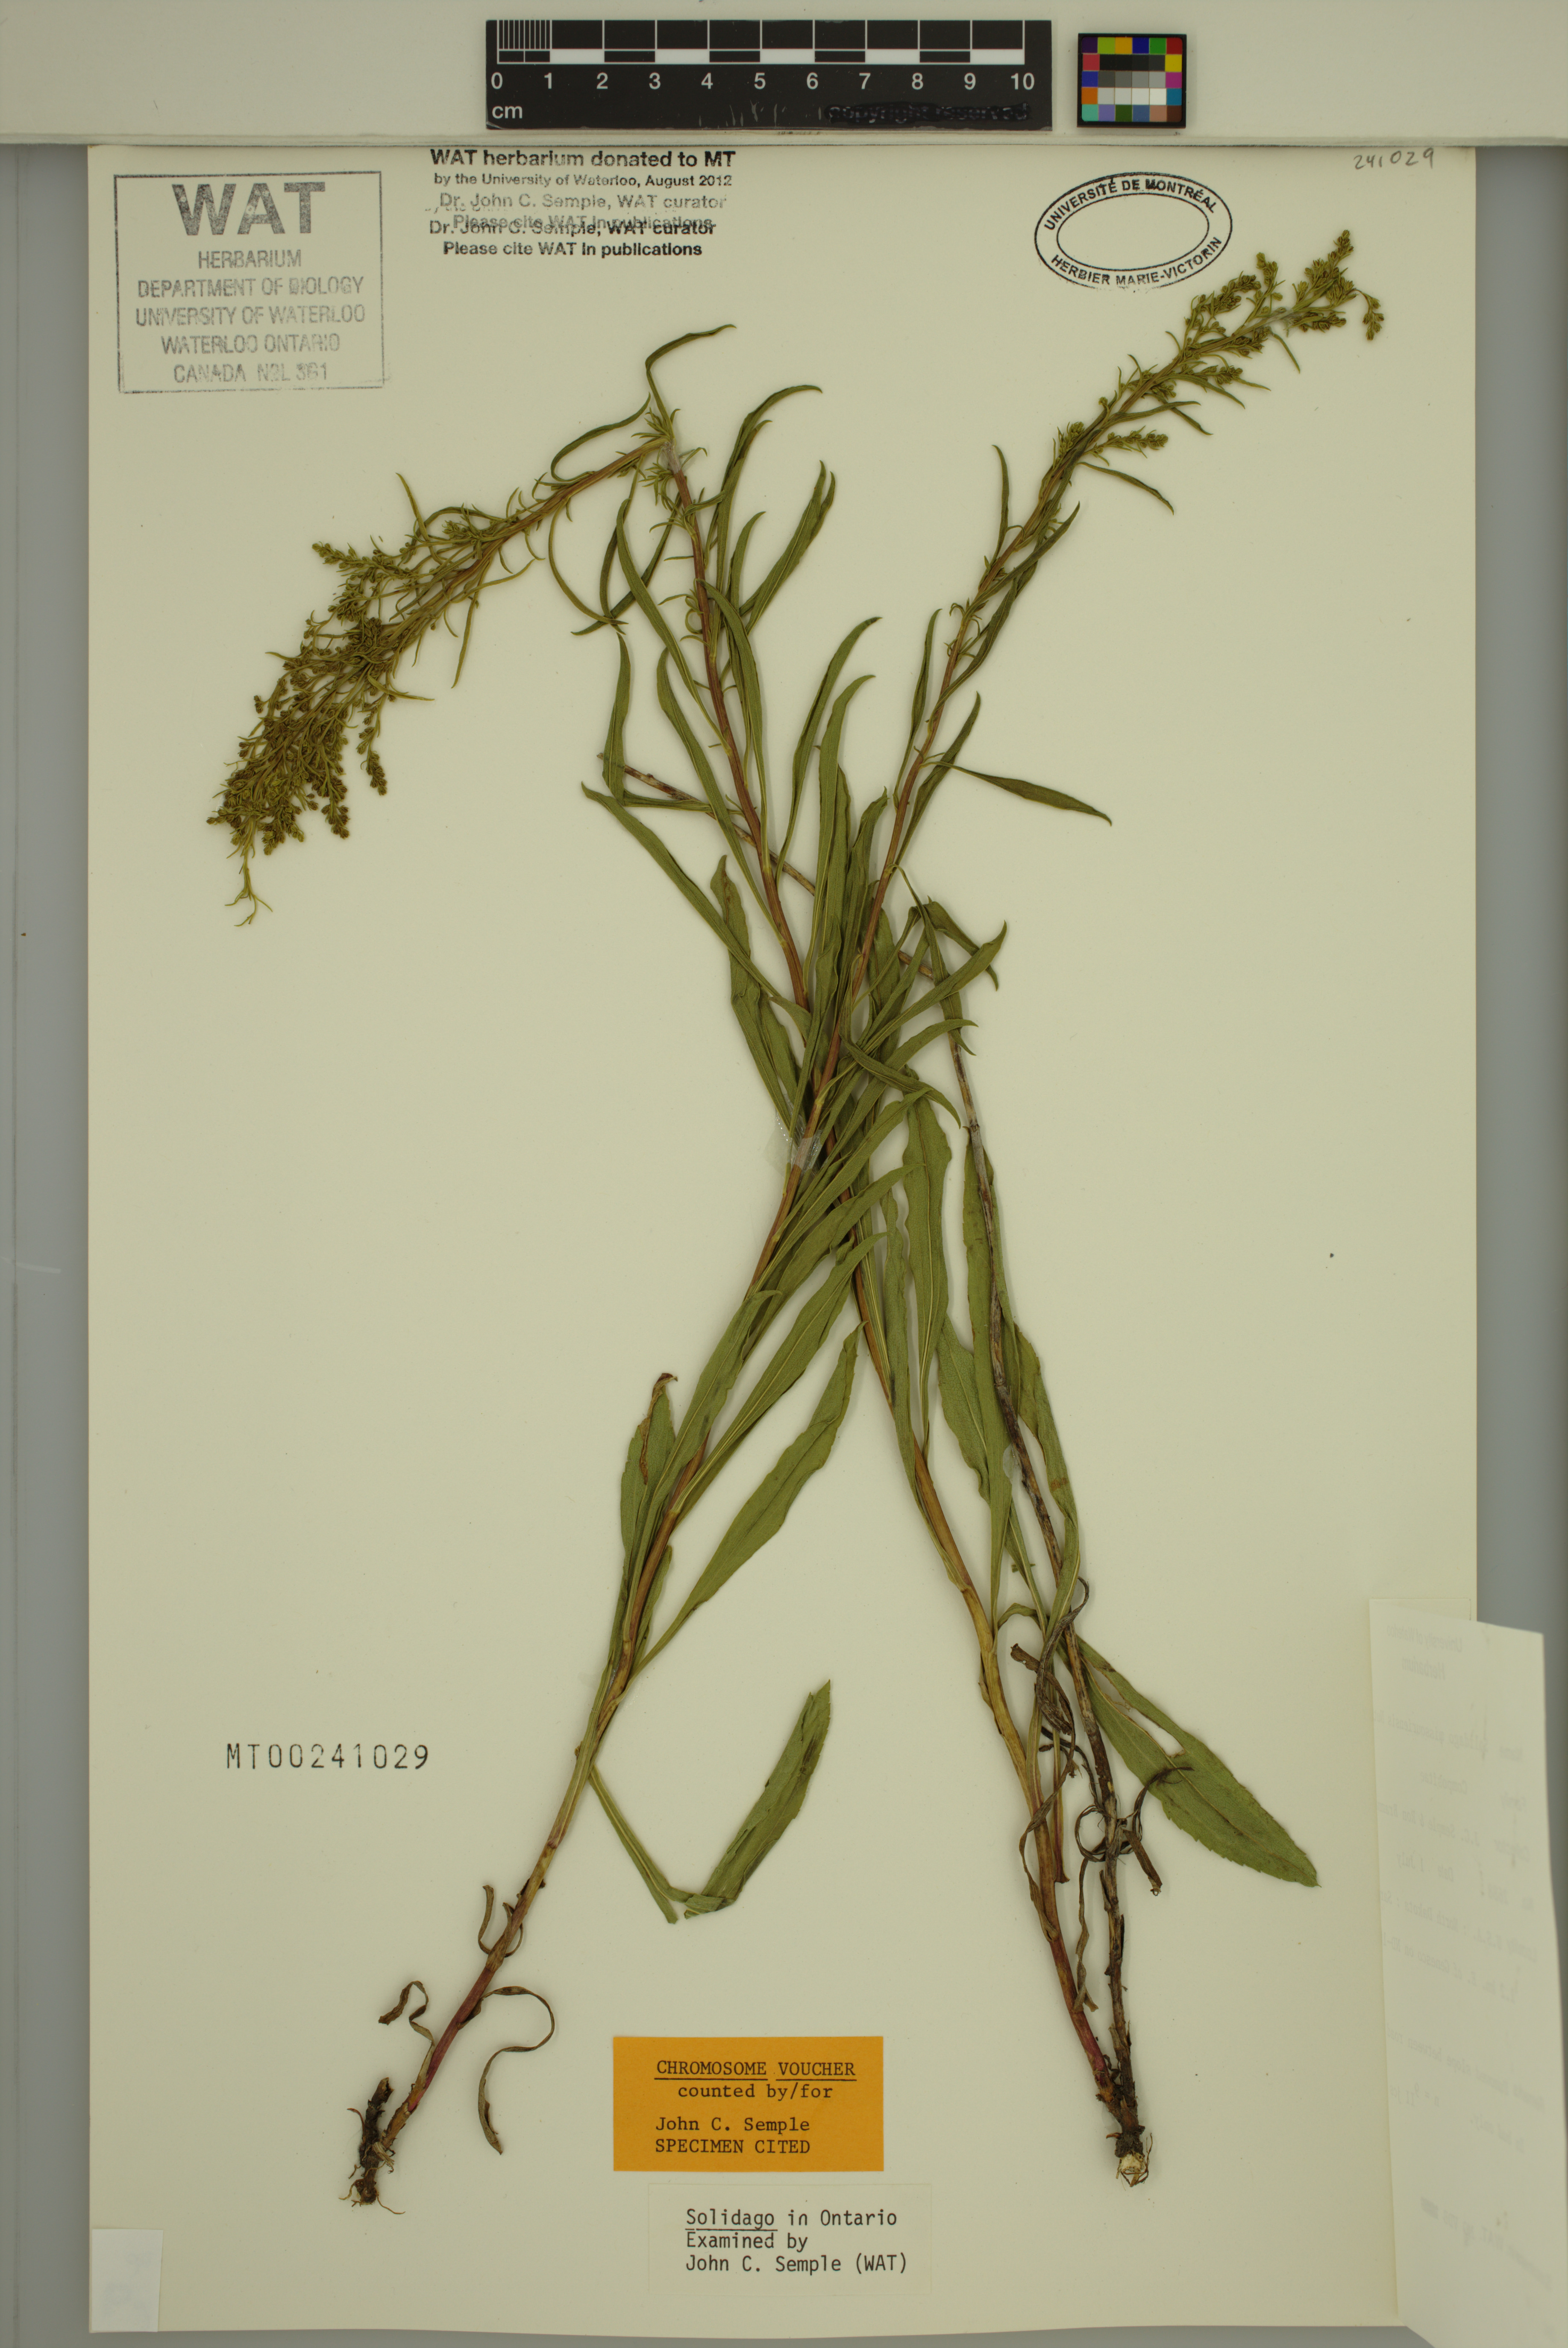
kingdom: Plantae
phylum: Tracheophyta
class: Magnoliopsida
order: Asterales
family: Asteraceae
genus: Solidago
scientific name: Solidago missouriensis
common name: Prairie goldenrod
